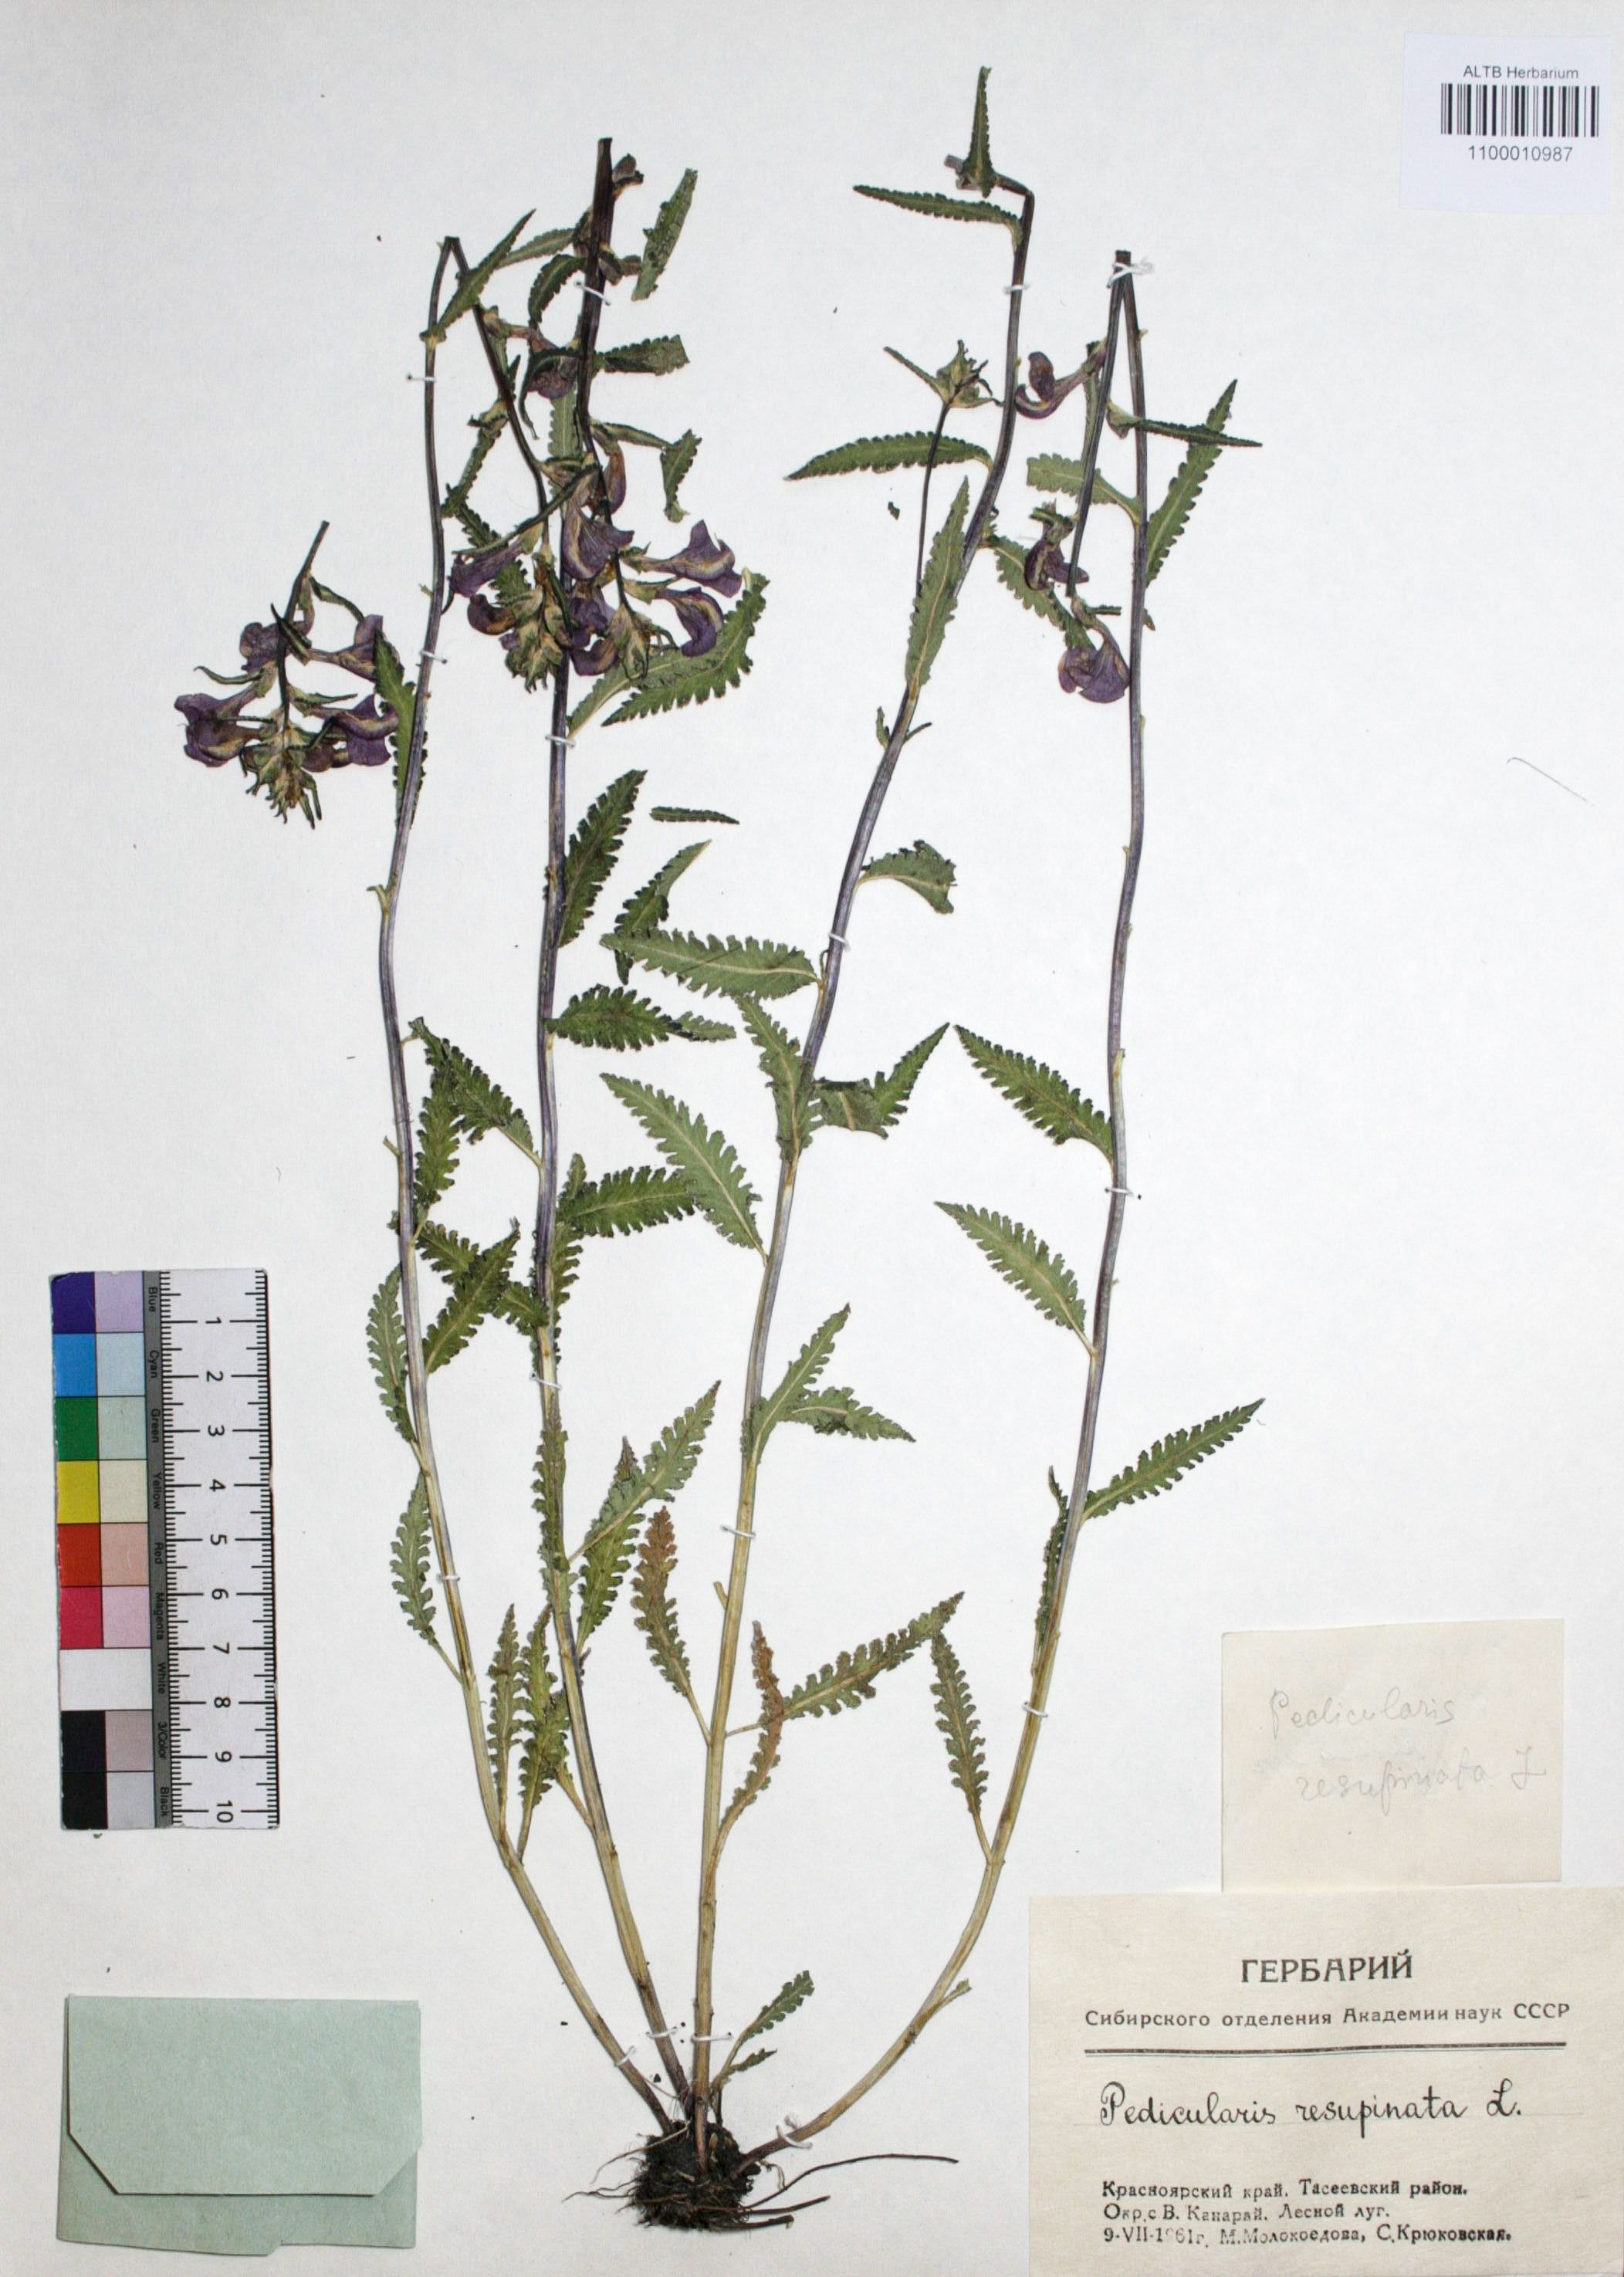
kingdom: Plantae
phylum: Tracheophyta
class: Magnoliopsida
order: Lamiales
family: Orobanchaceae
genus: Pedicularis
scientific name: Pedicularis resupinata
